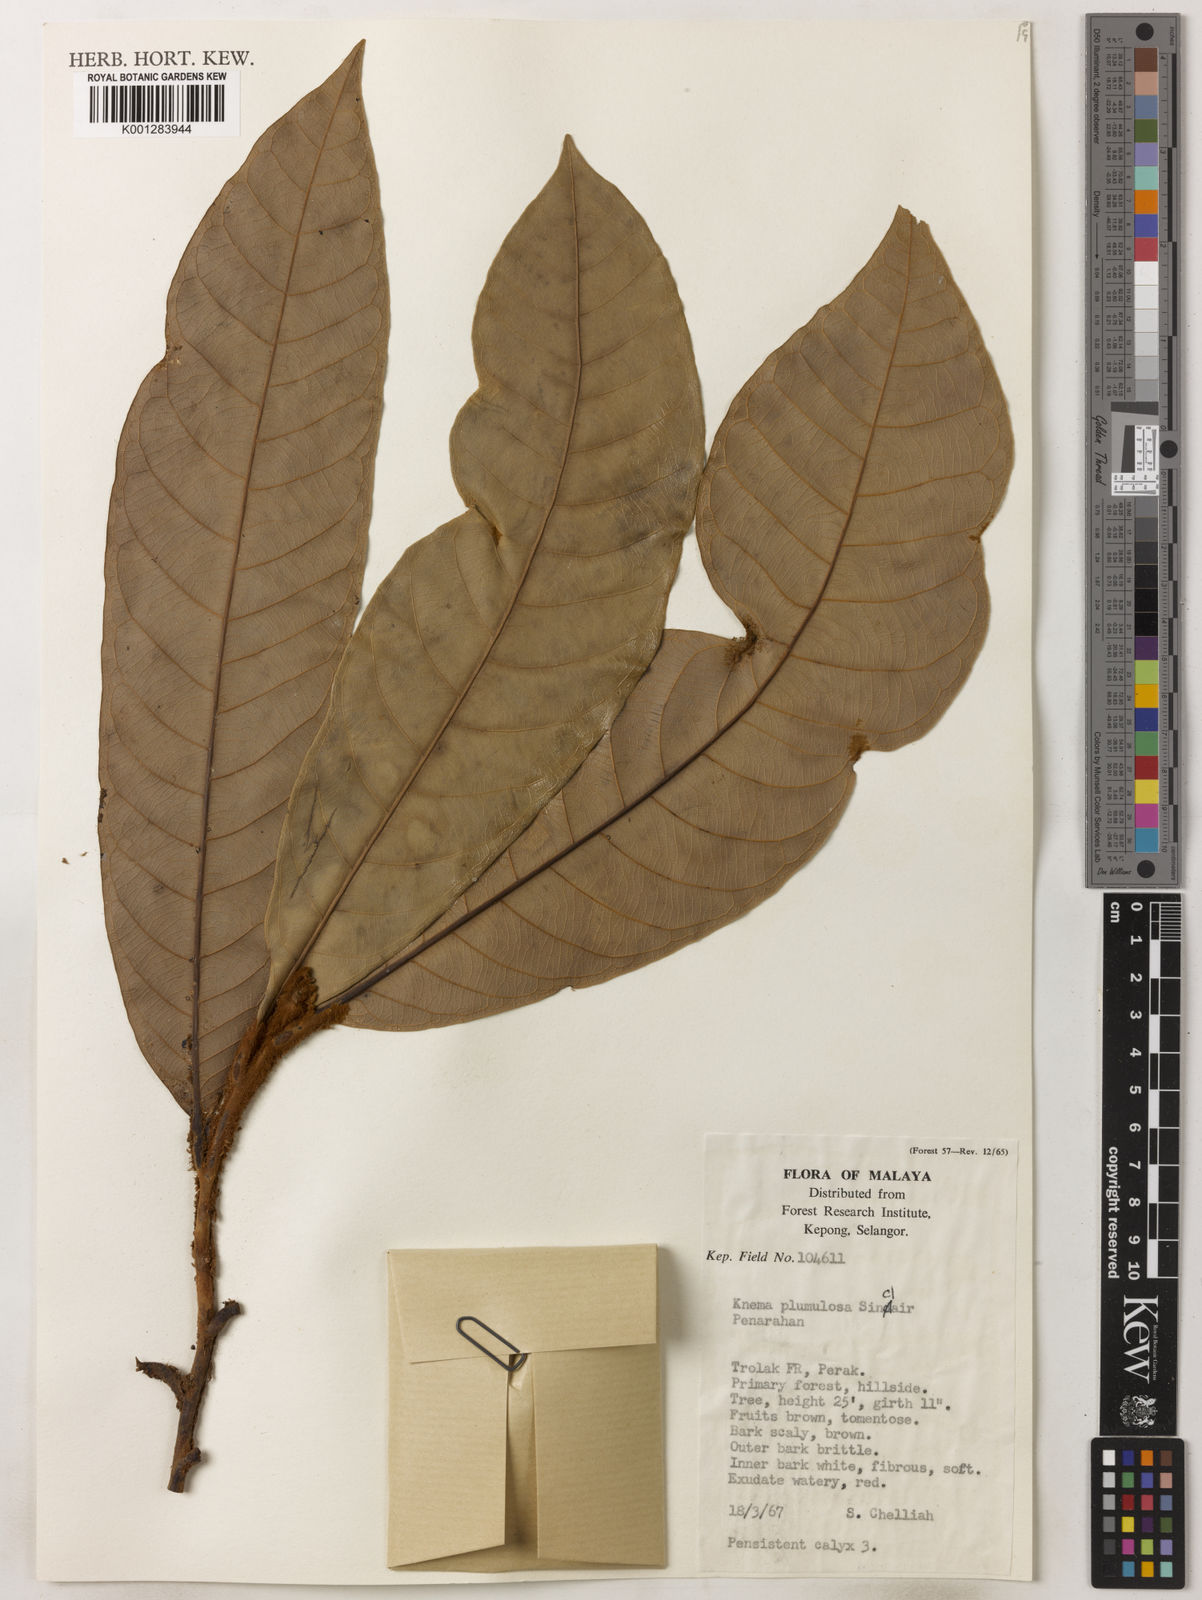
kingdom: Plantae
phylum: Tracheophyta
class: Magnoliopsida
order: Magnoliales
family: Myristicaceae
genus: Knema
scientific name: Knema plumulosa
